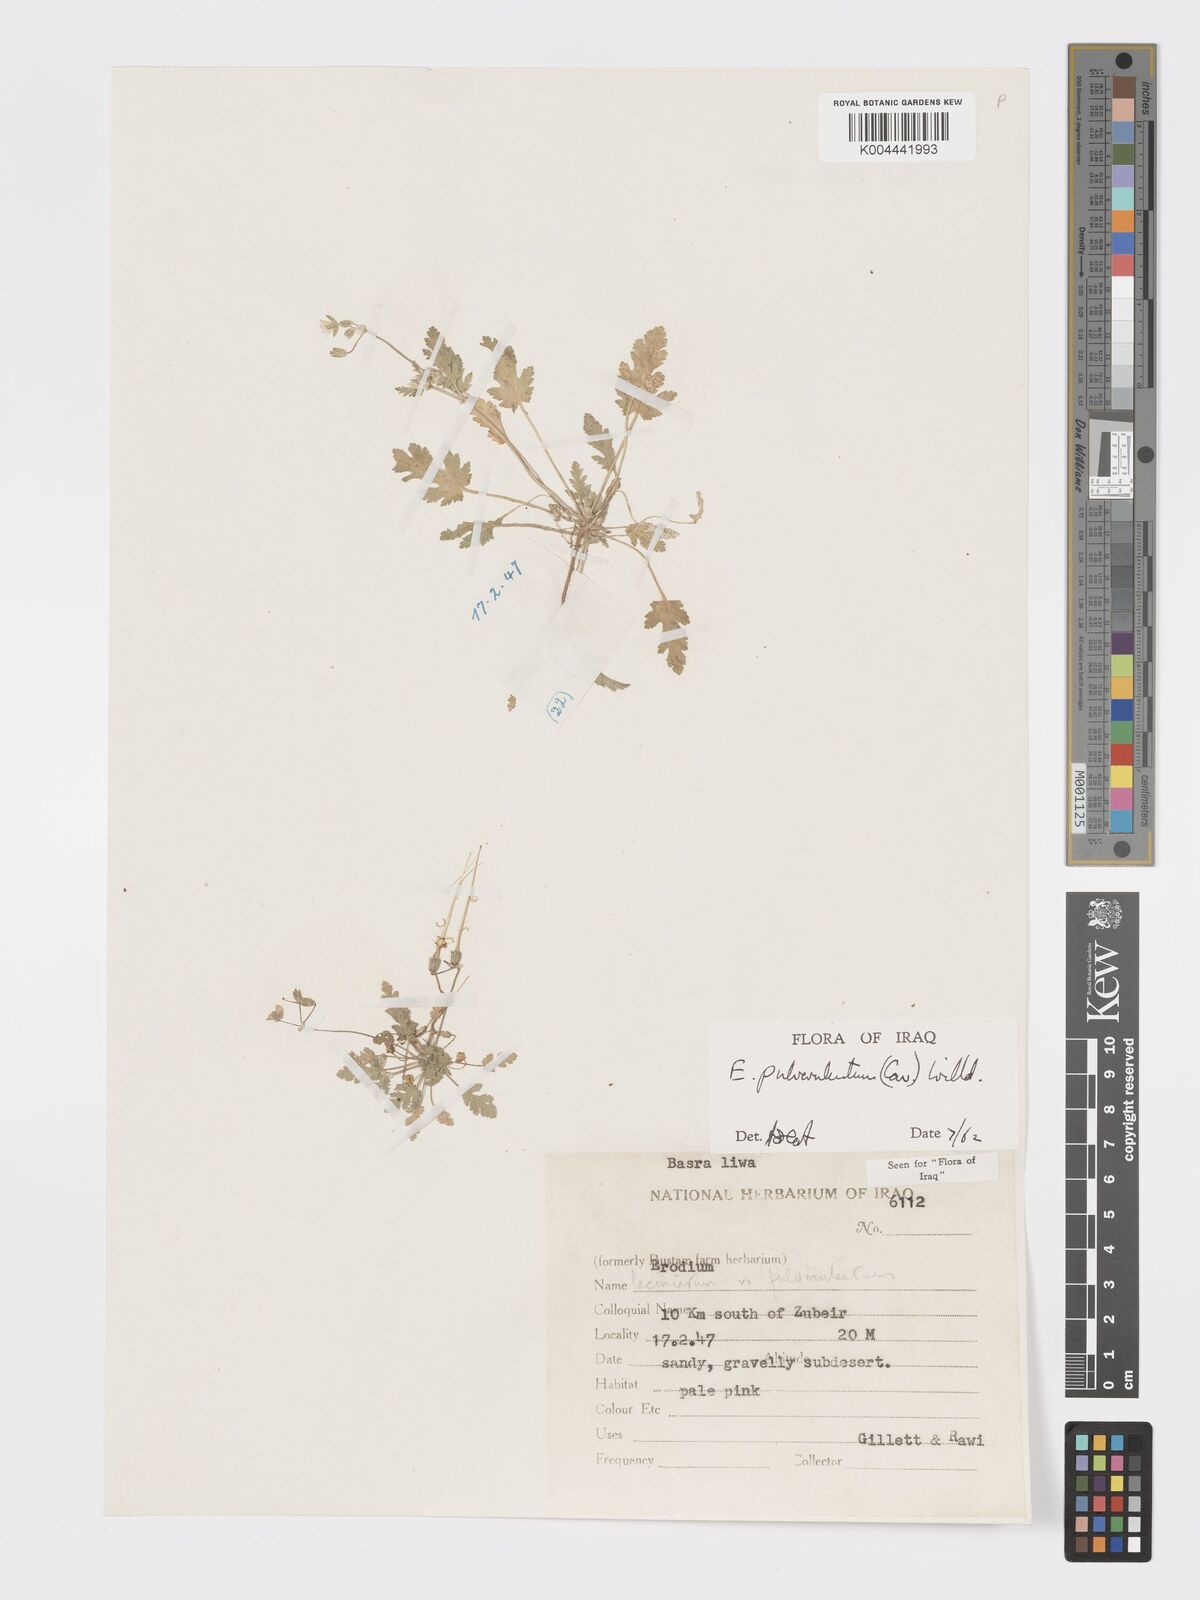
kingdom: Plantae
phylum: Tracheophyta
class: Magnoliopsida
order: Geraniales
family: Geraniaceae
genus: Erodium
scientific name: Erodium laciniatum
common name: Cutleaf stork's bill
